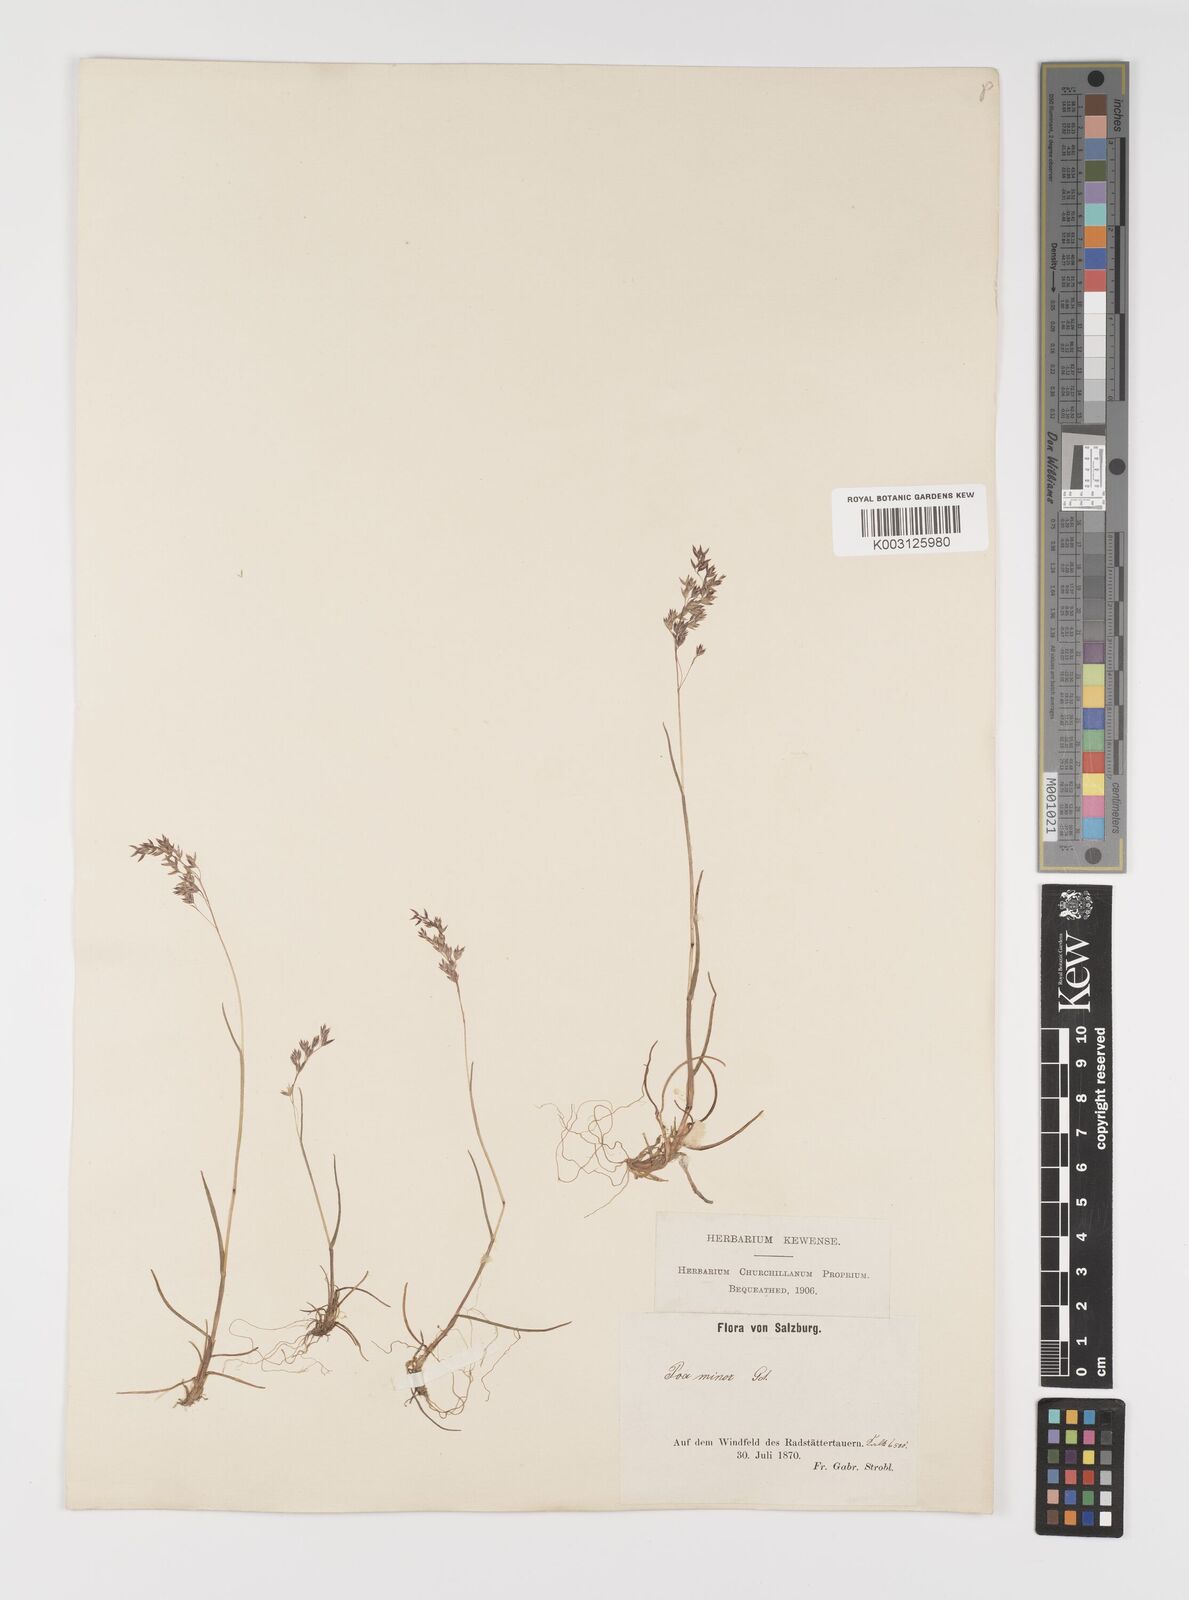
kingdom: Plantae
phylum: Tracheophyta
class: Liliopsida
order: Poales
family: Poaceae
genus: Poa
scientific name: Poa minor
